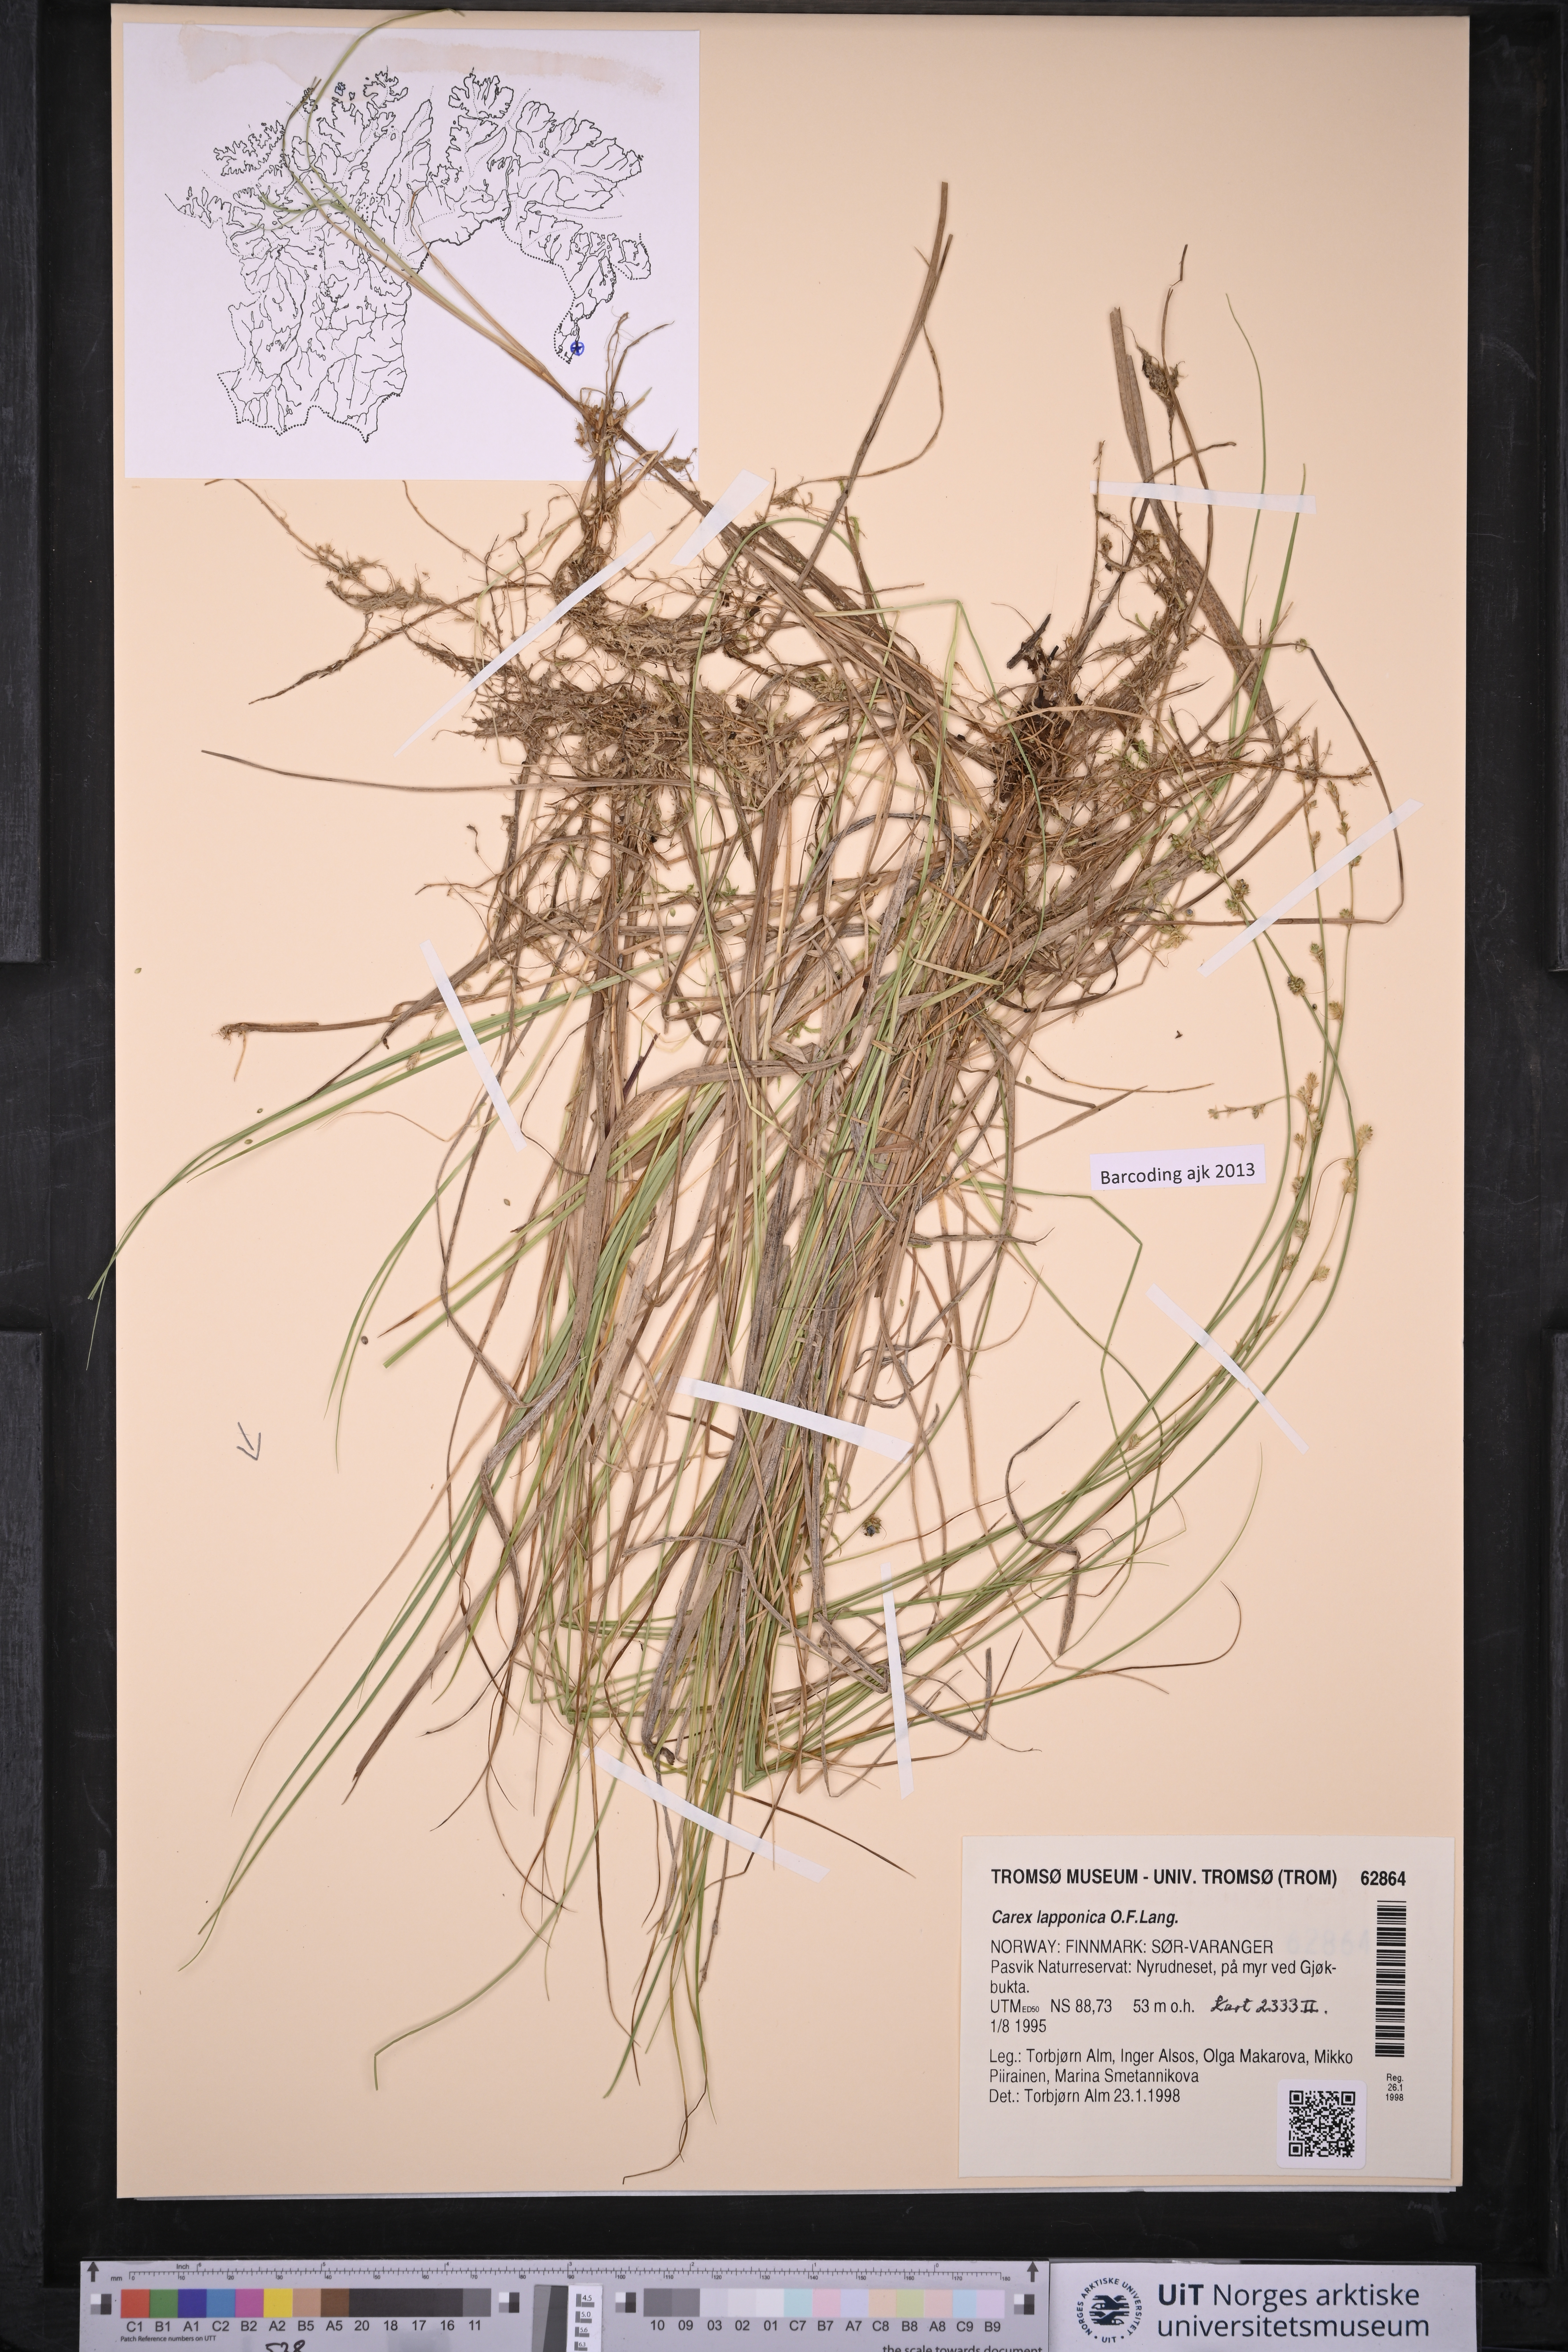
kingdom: Plantae
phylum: Tracheophyta
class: Liliopsida
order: Poales
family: Cyperaceae
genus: Carex
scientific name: Carex lapponica
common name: Lapland sedge
